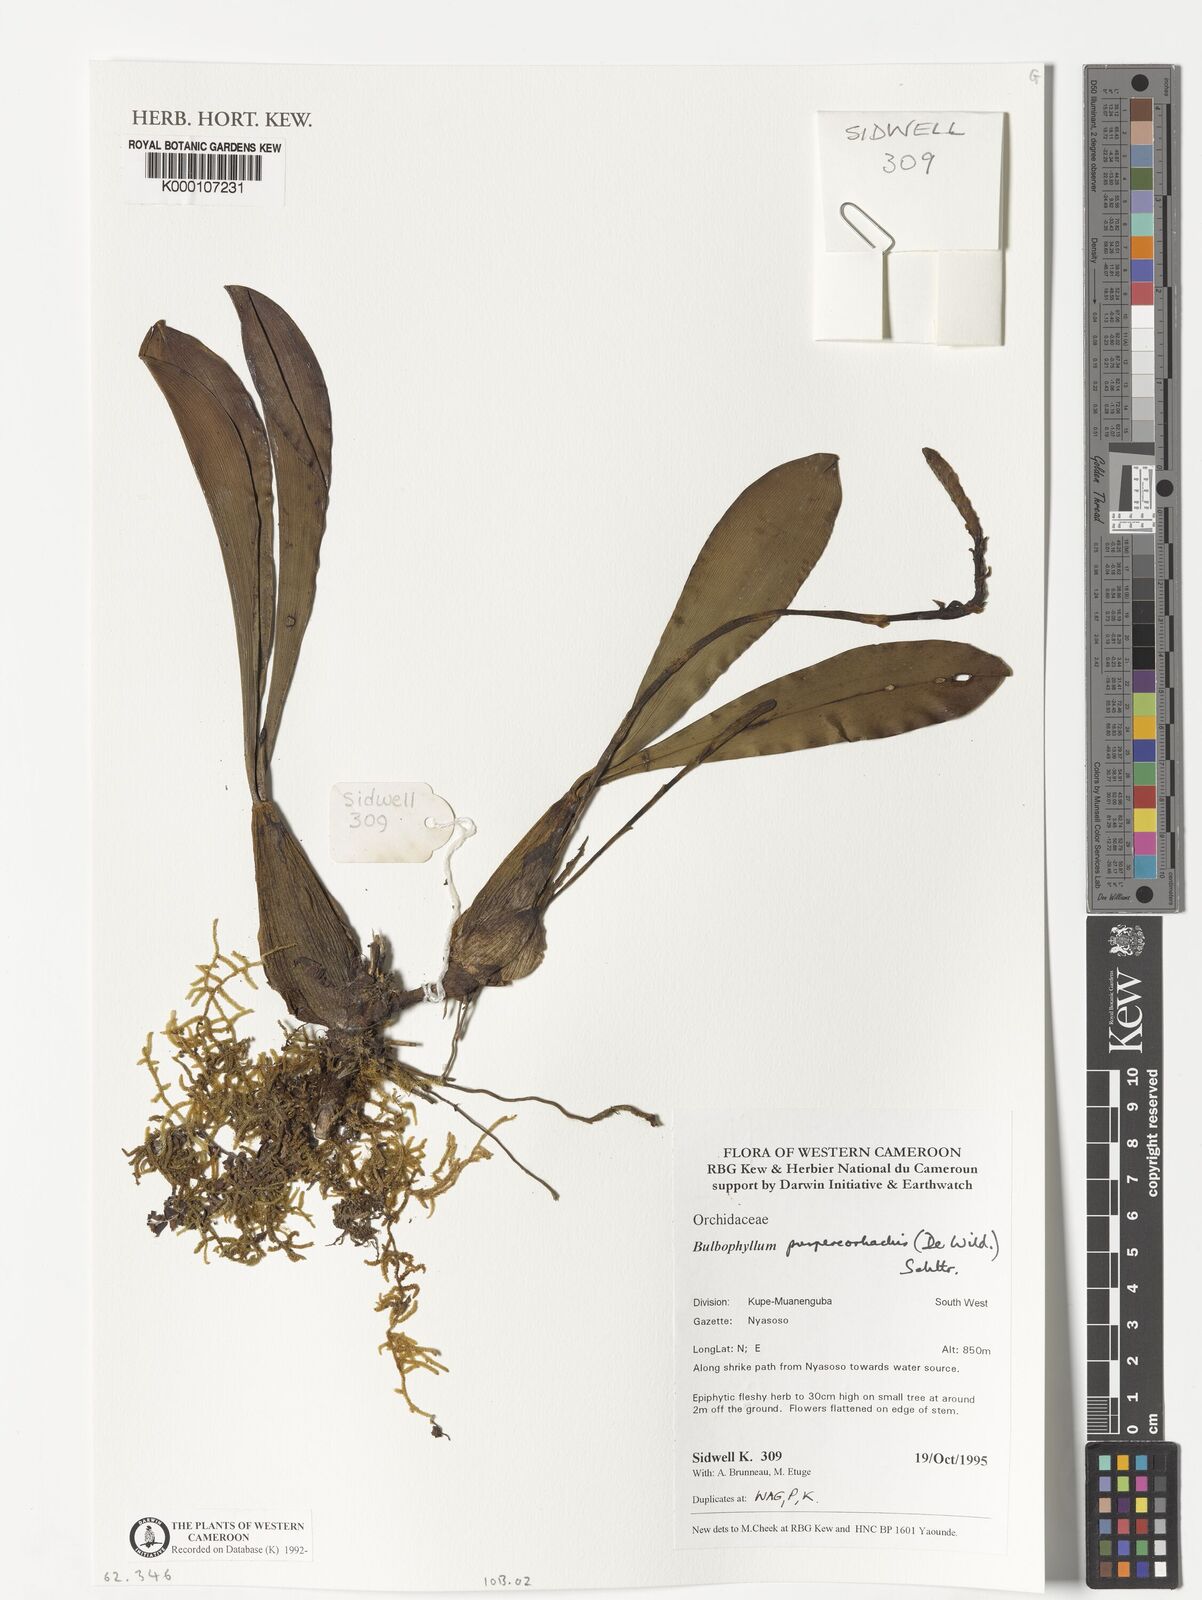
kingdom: Plantae
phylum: Tracheophyta
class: Liliopsida
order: Asparagales
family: Orchidaceae
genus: Bulbophyllum
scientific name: Bulbophyllum purpureorhachis
